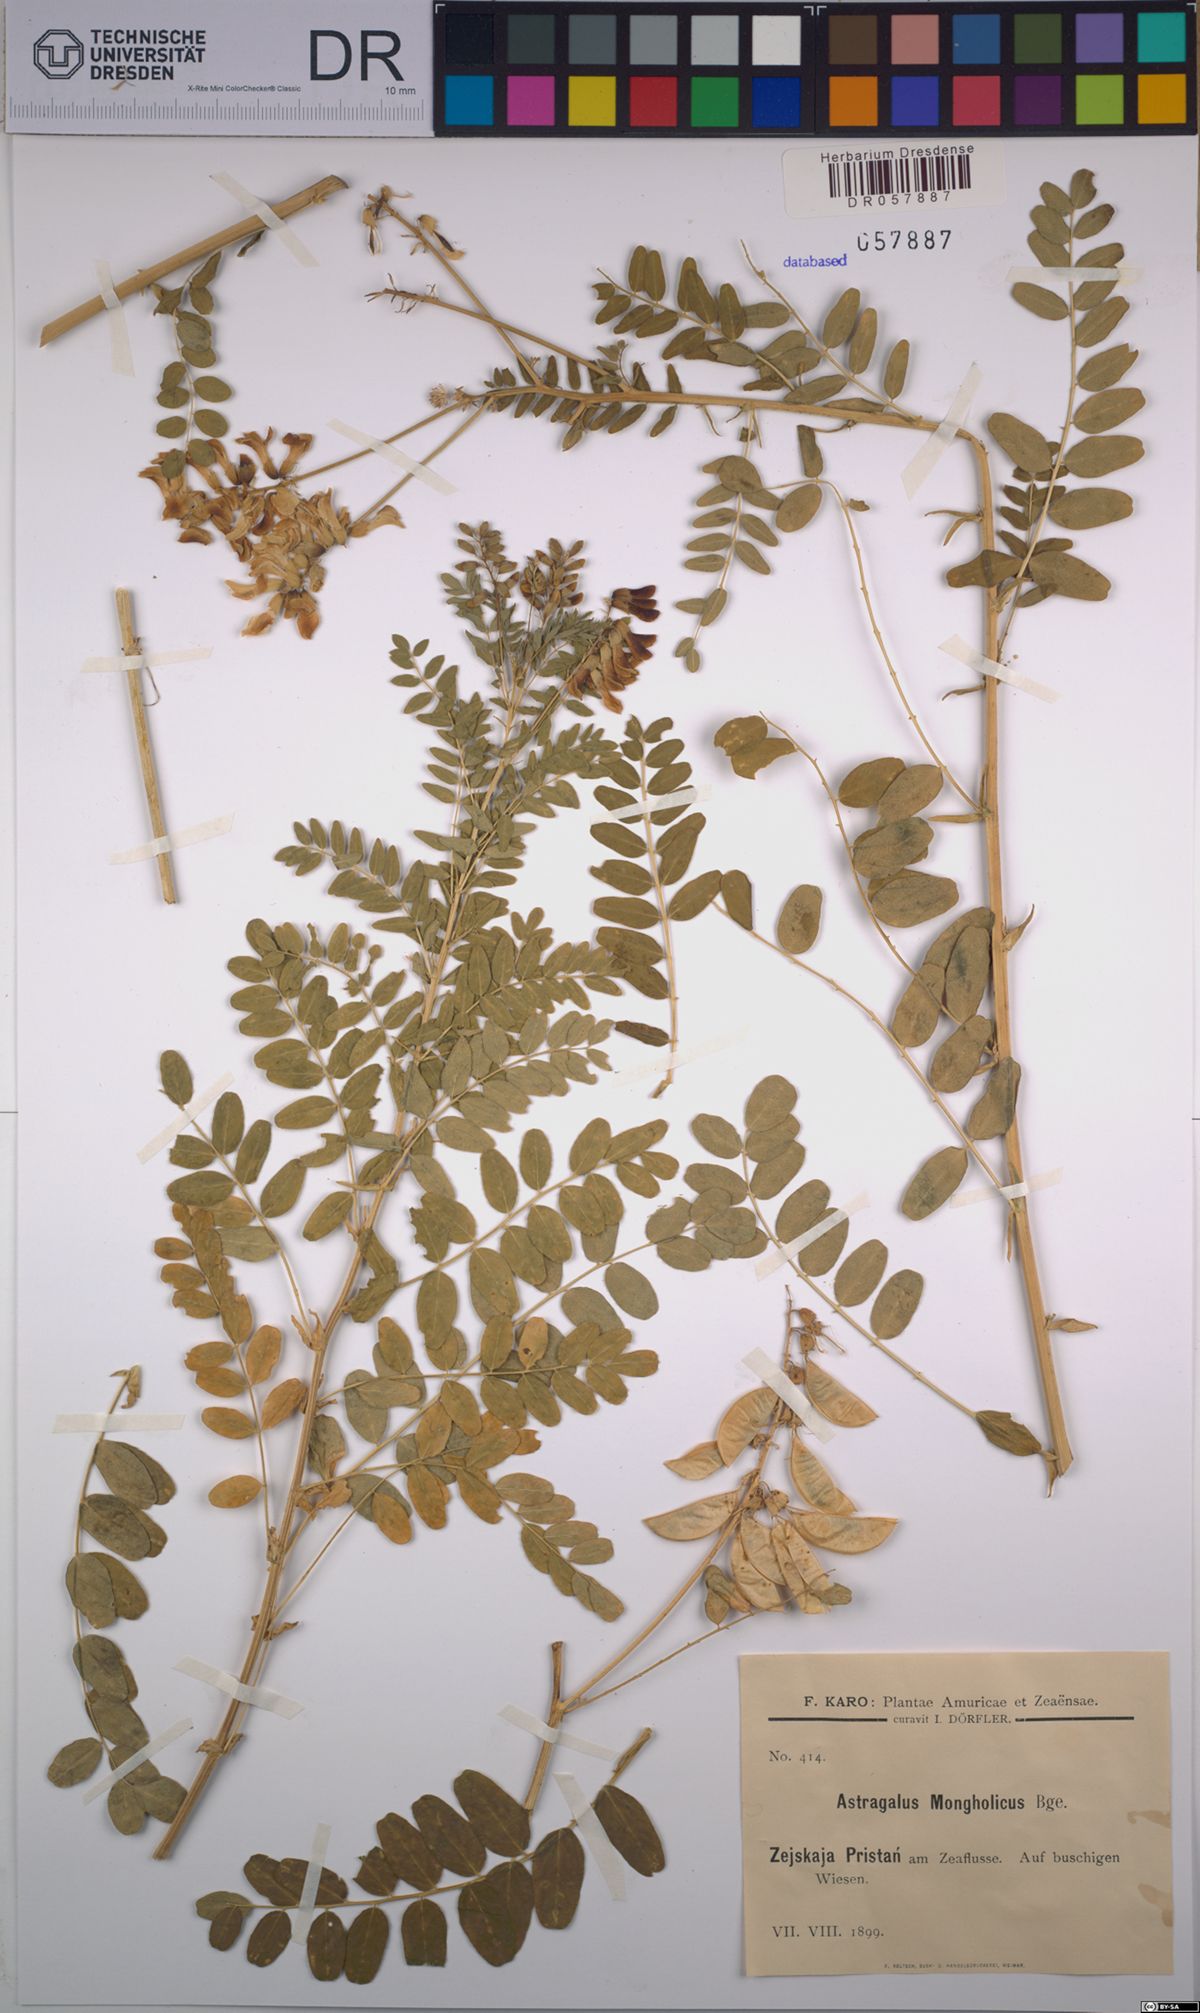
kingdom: Plantae
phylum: Tracheophyta
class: Magnoliopsida
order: Fabales
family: Fabaceae
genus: Astragalus
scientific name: Astragalus mongholicus
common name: Membranous milk-vetch
